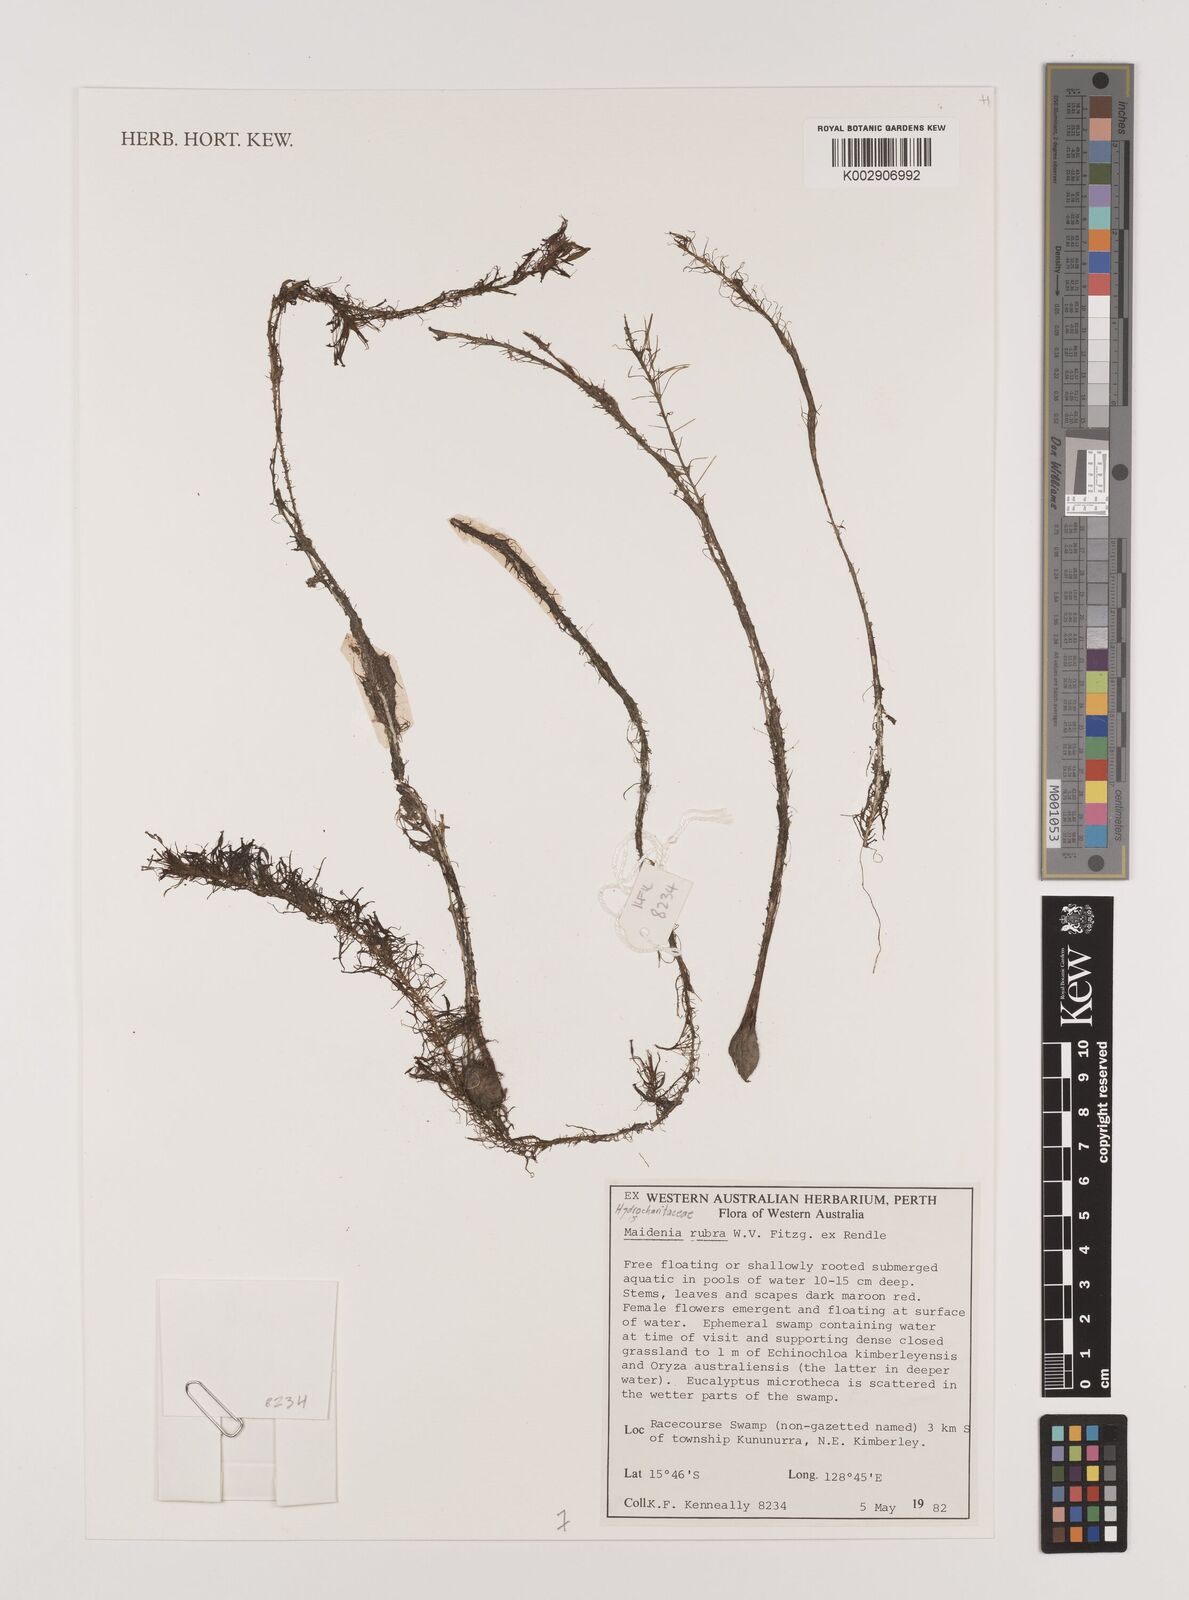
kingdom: Plantae
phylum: Tracheophyta
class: Liliopsida
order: Alismatales
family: Hydrocharitaceae
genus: Vallisneria
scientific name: Vallisneria rubra
